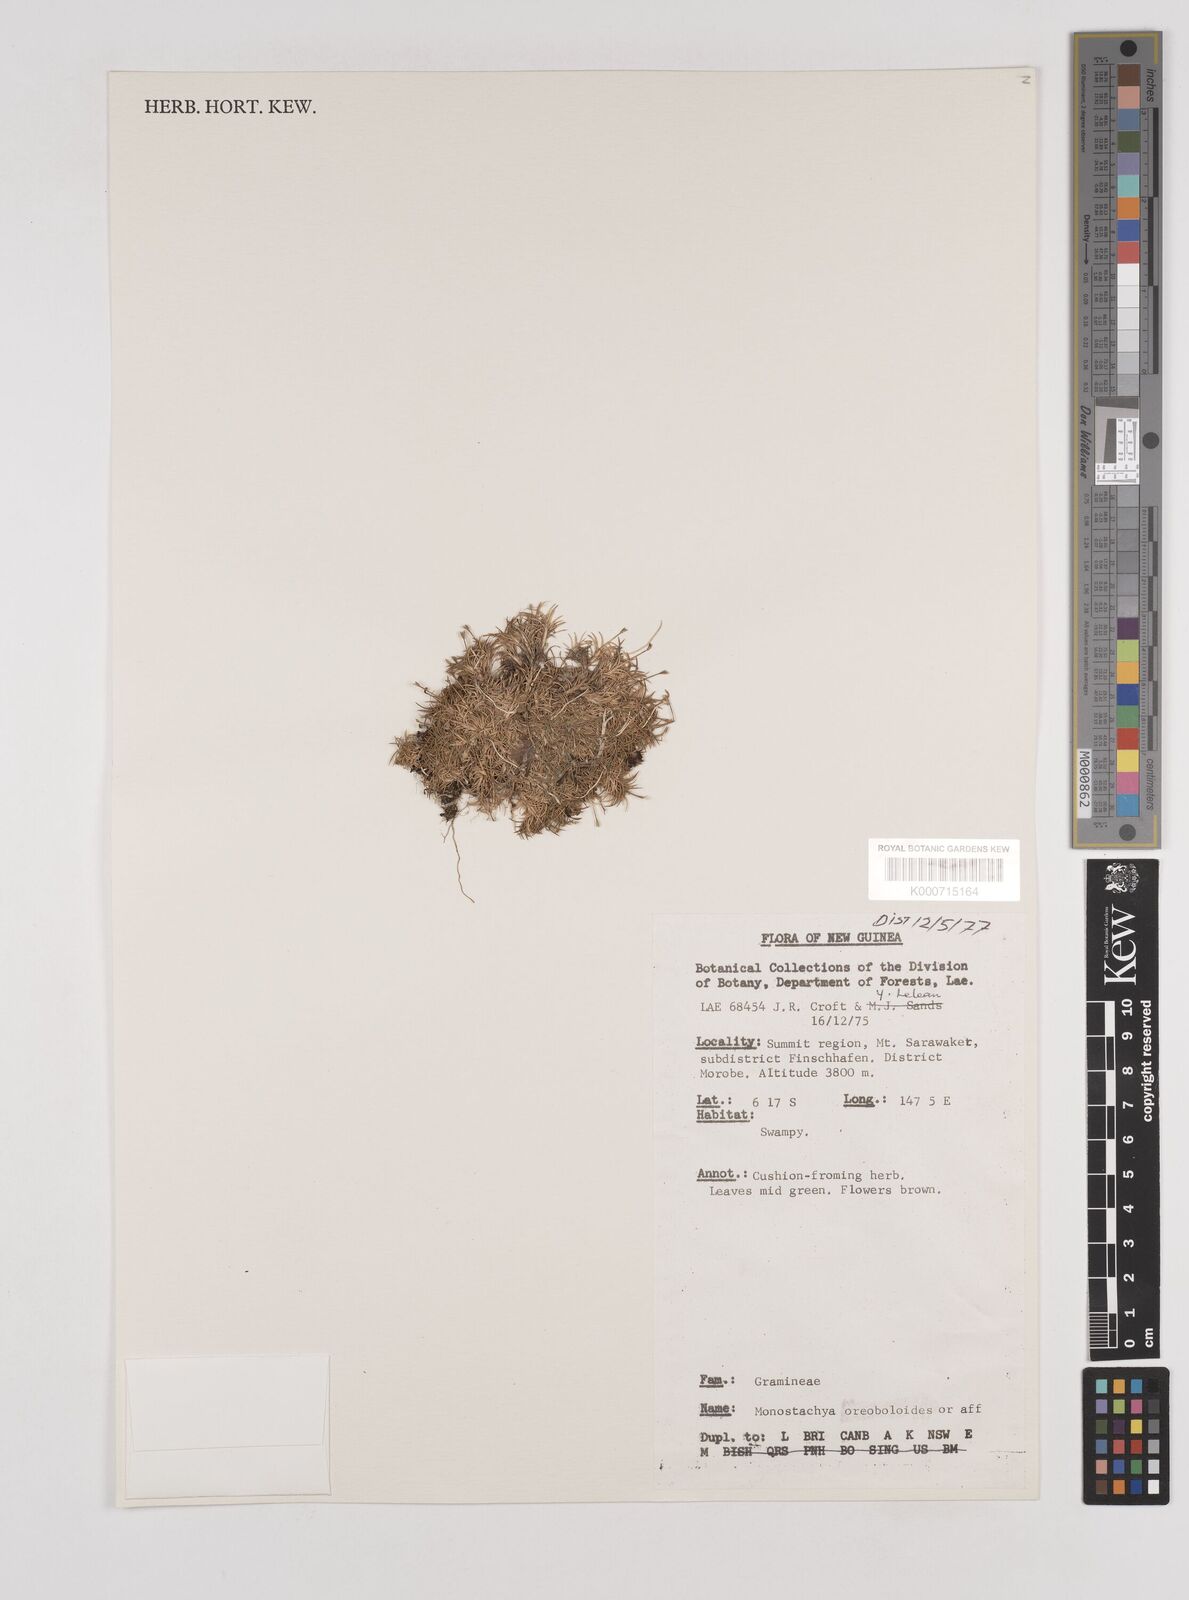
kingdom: Plantae
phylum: Tracheophyta
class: Liliopsida
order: Poales
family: Poaceae
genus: Rytidosperma
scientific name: Rytidosperma oreoboloides
